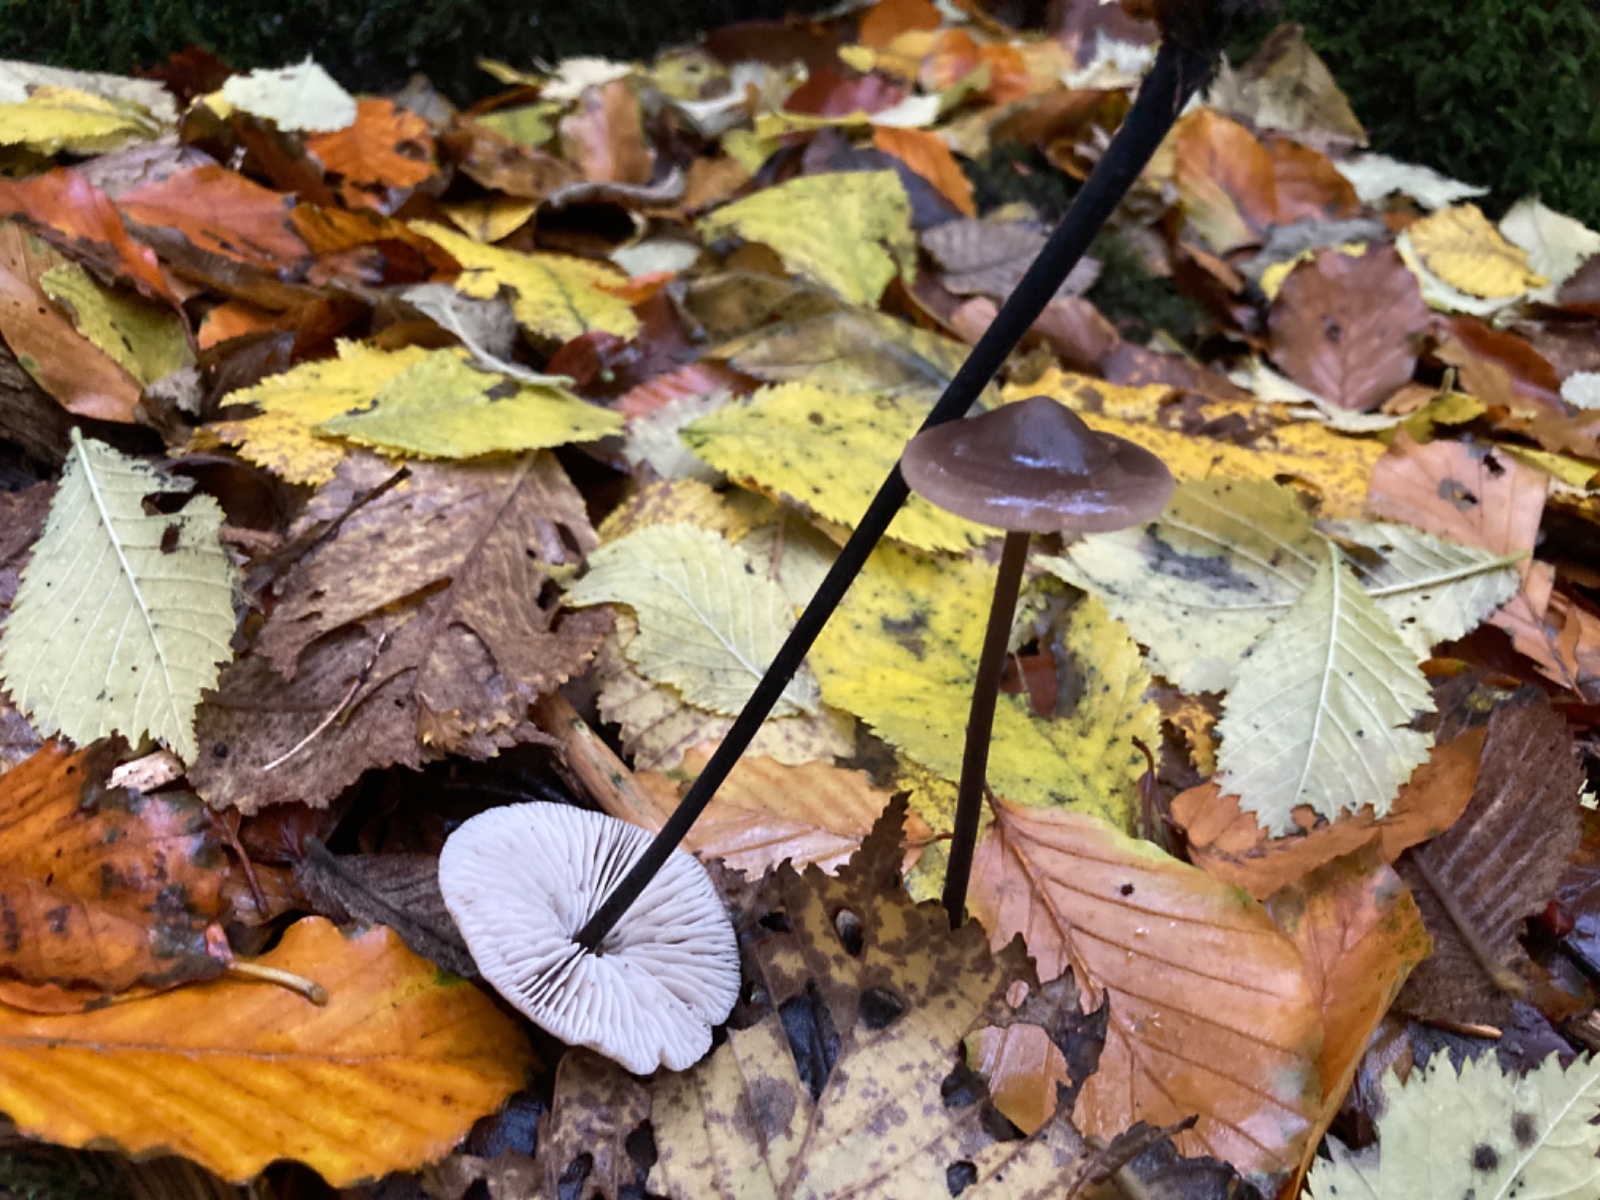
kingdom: Fungi
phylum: Basidiomycota
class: Agaricomycetes
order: Agaricales
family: Omphalotaceae
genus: Mycetinis
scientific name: Mycetinis alliaceus
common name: stor løghat
